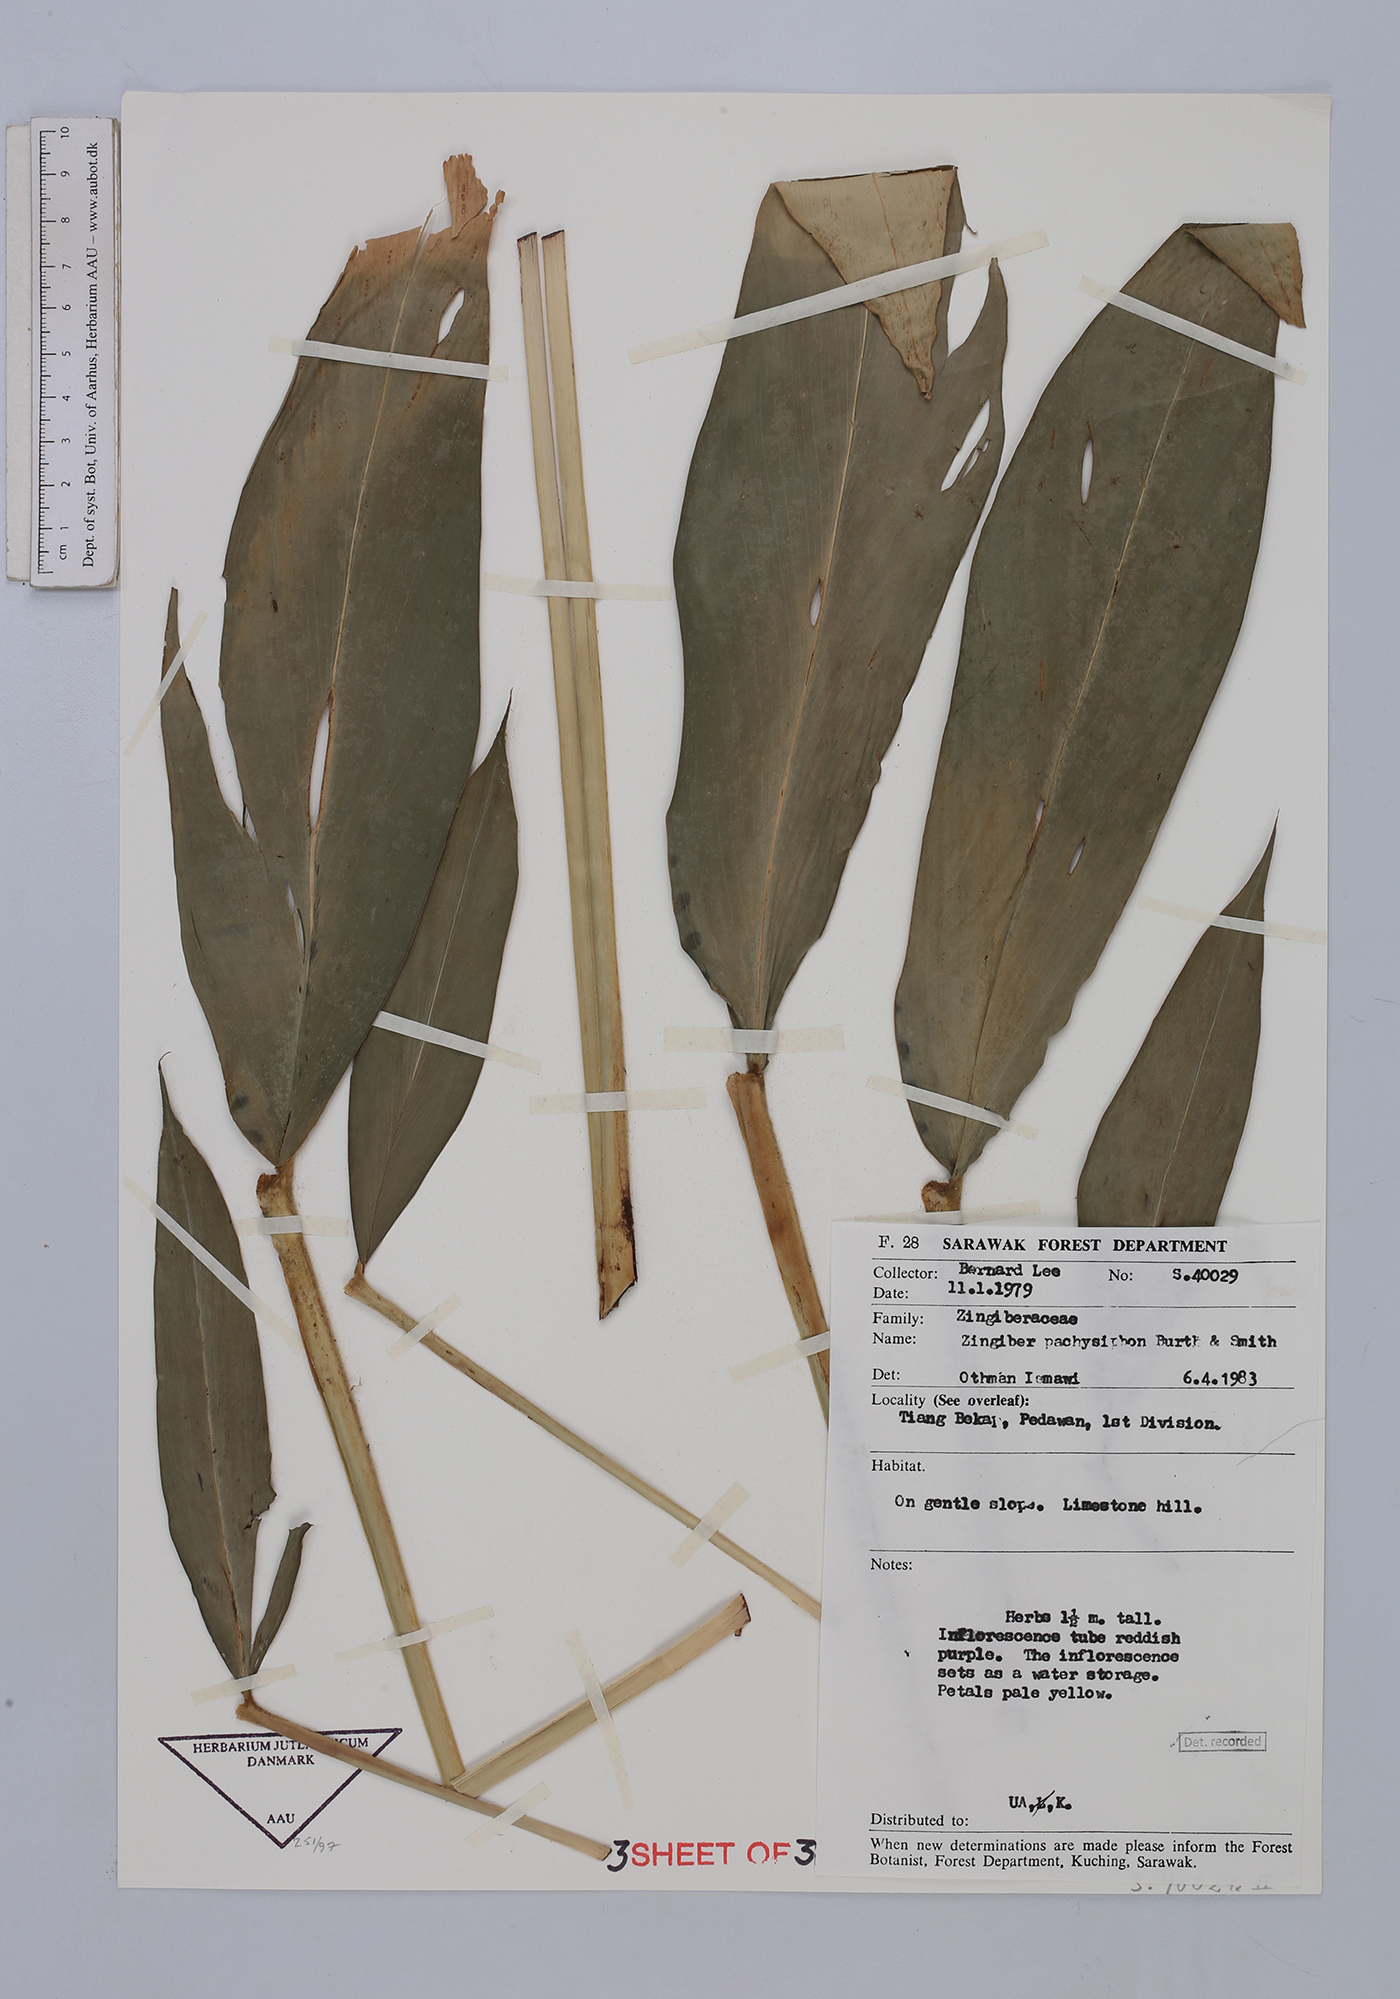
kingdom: Plantae
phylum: Tracheophyta
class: Liliopsida
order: Zingiberales
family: Zingiberaceae
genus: Zingiber
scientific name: Zingiber puberulum
